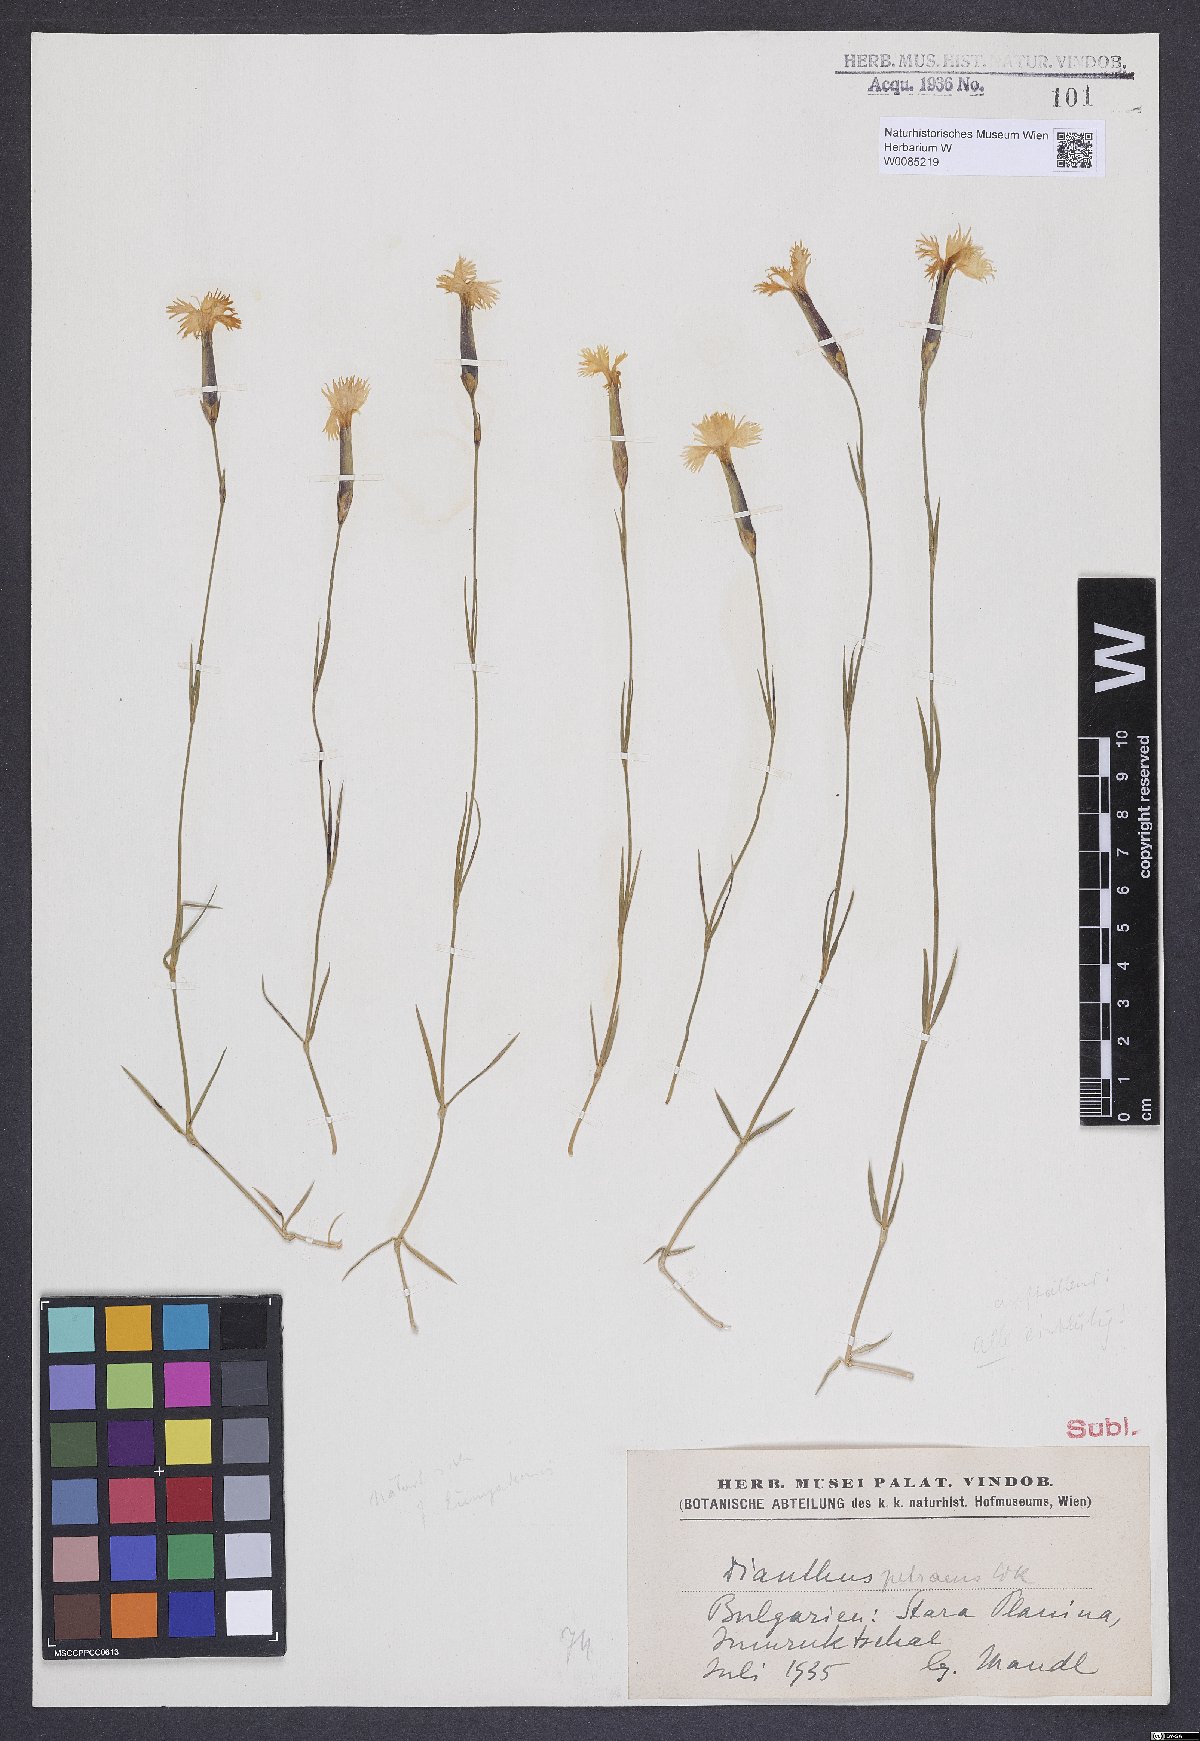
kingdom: Plantae
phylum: Tracheophyta
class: Magnoliopsida
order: Caryophyllales
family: Caryophyllaceae
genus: Dianthus
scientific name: Dianthus petraeus
